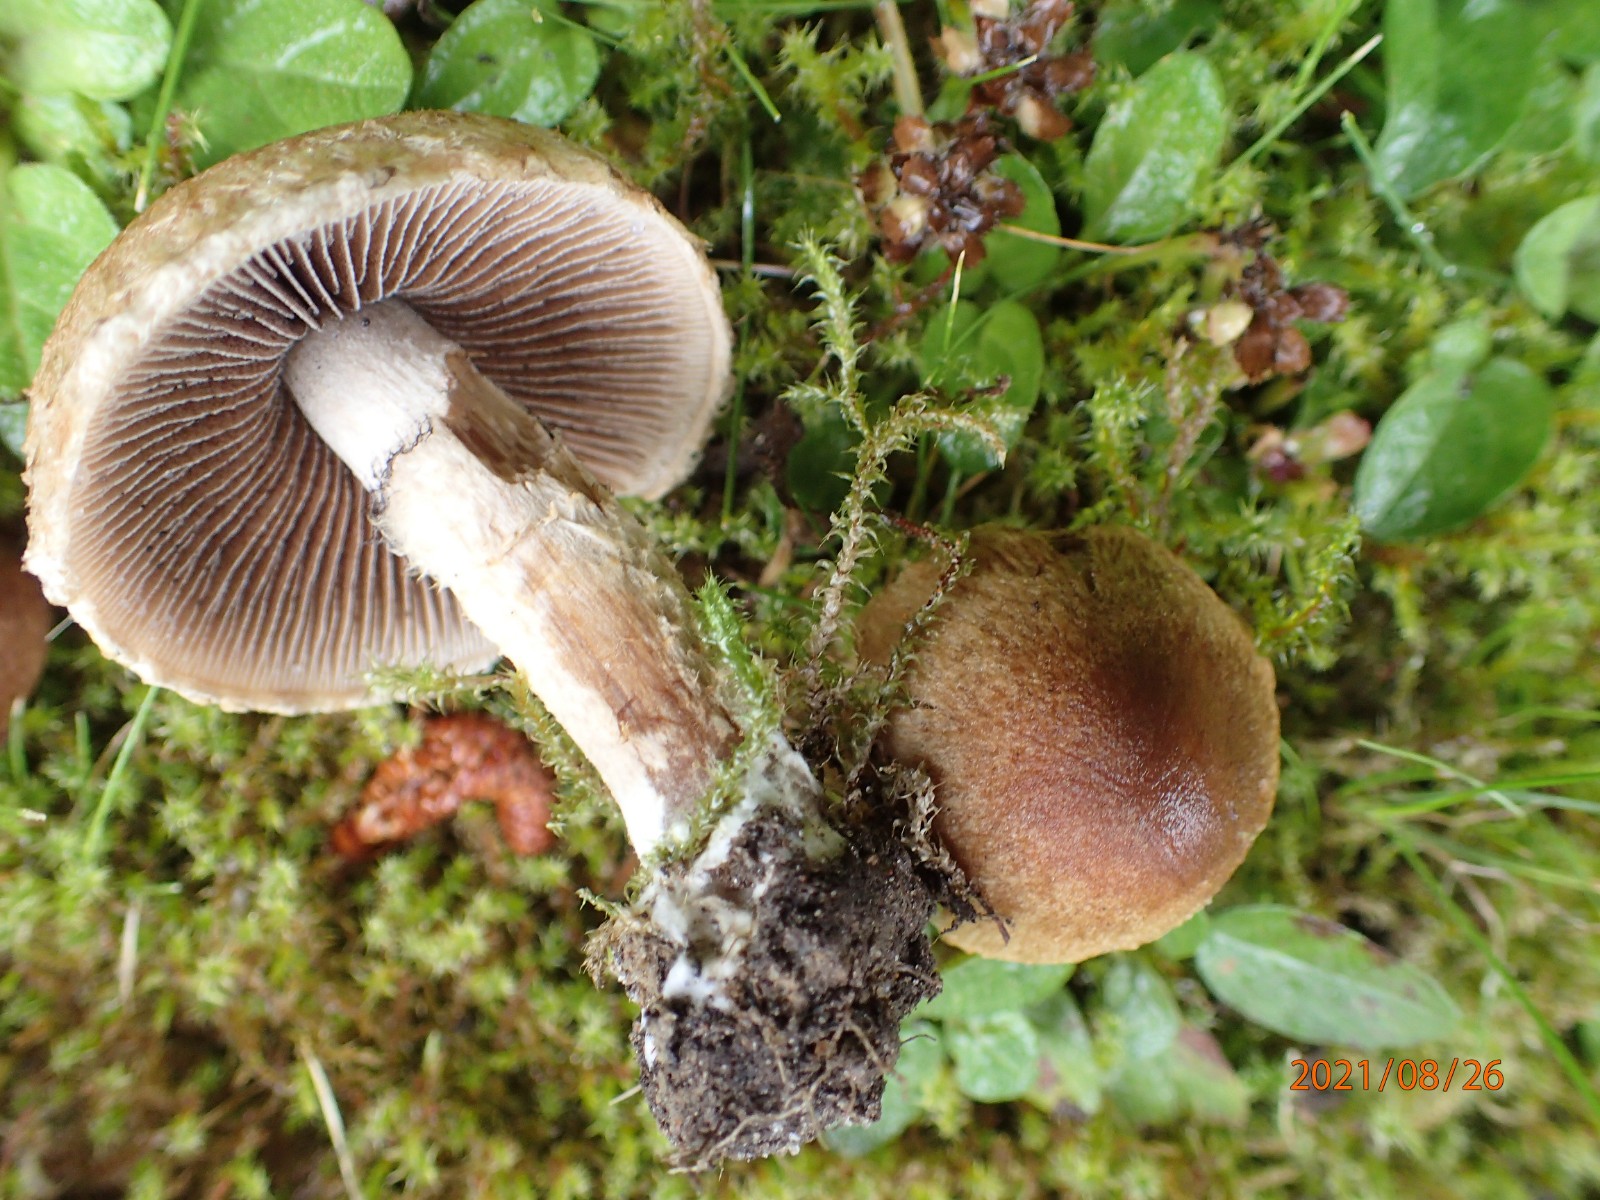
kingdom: Fungi
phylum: Basidiomycota
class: Agaricomycetes
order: Agaricales
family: Psathyrellaceae
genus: Lacrymaria
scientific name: Lacrymaria lacrymabunda
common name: grædende mørkhat
